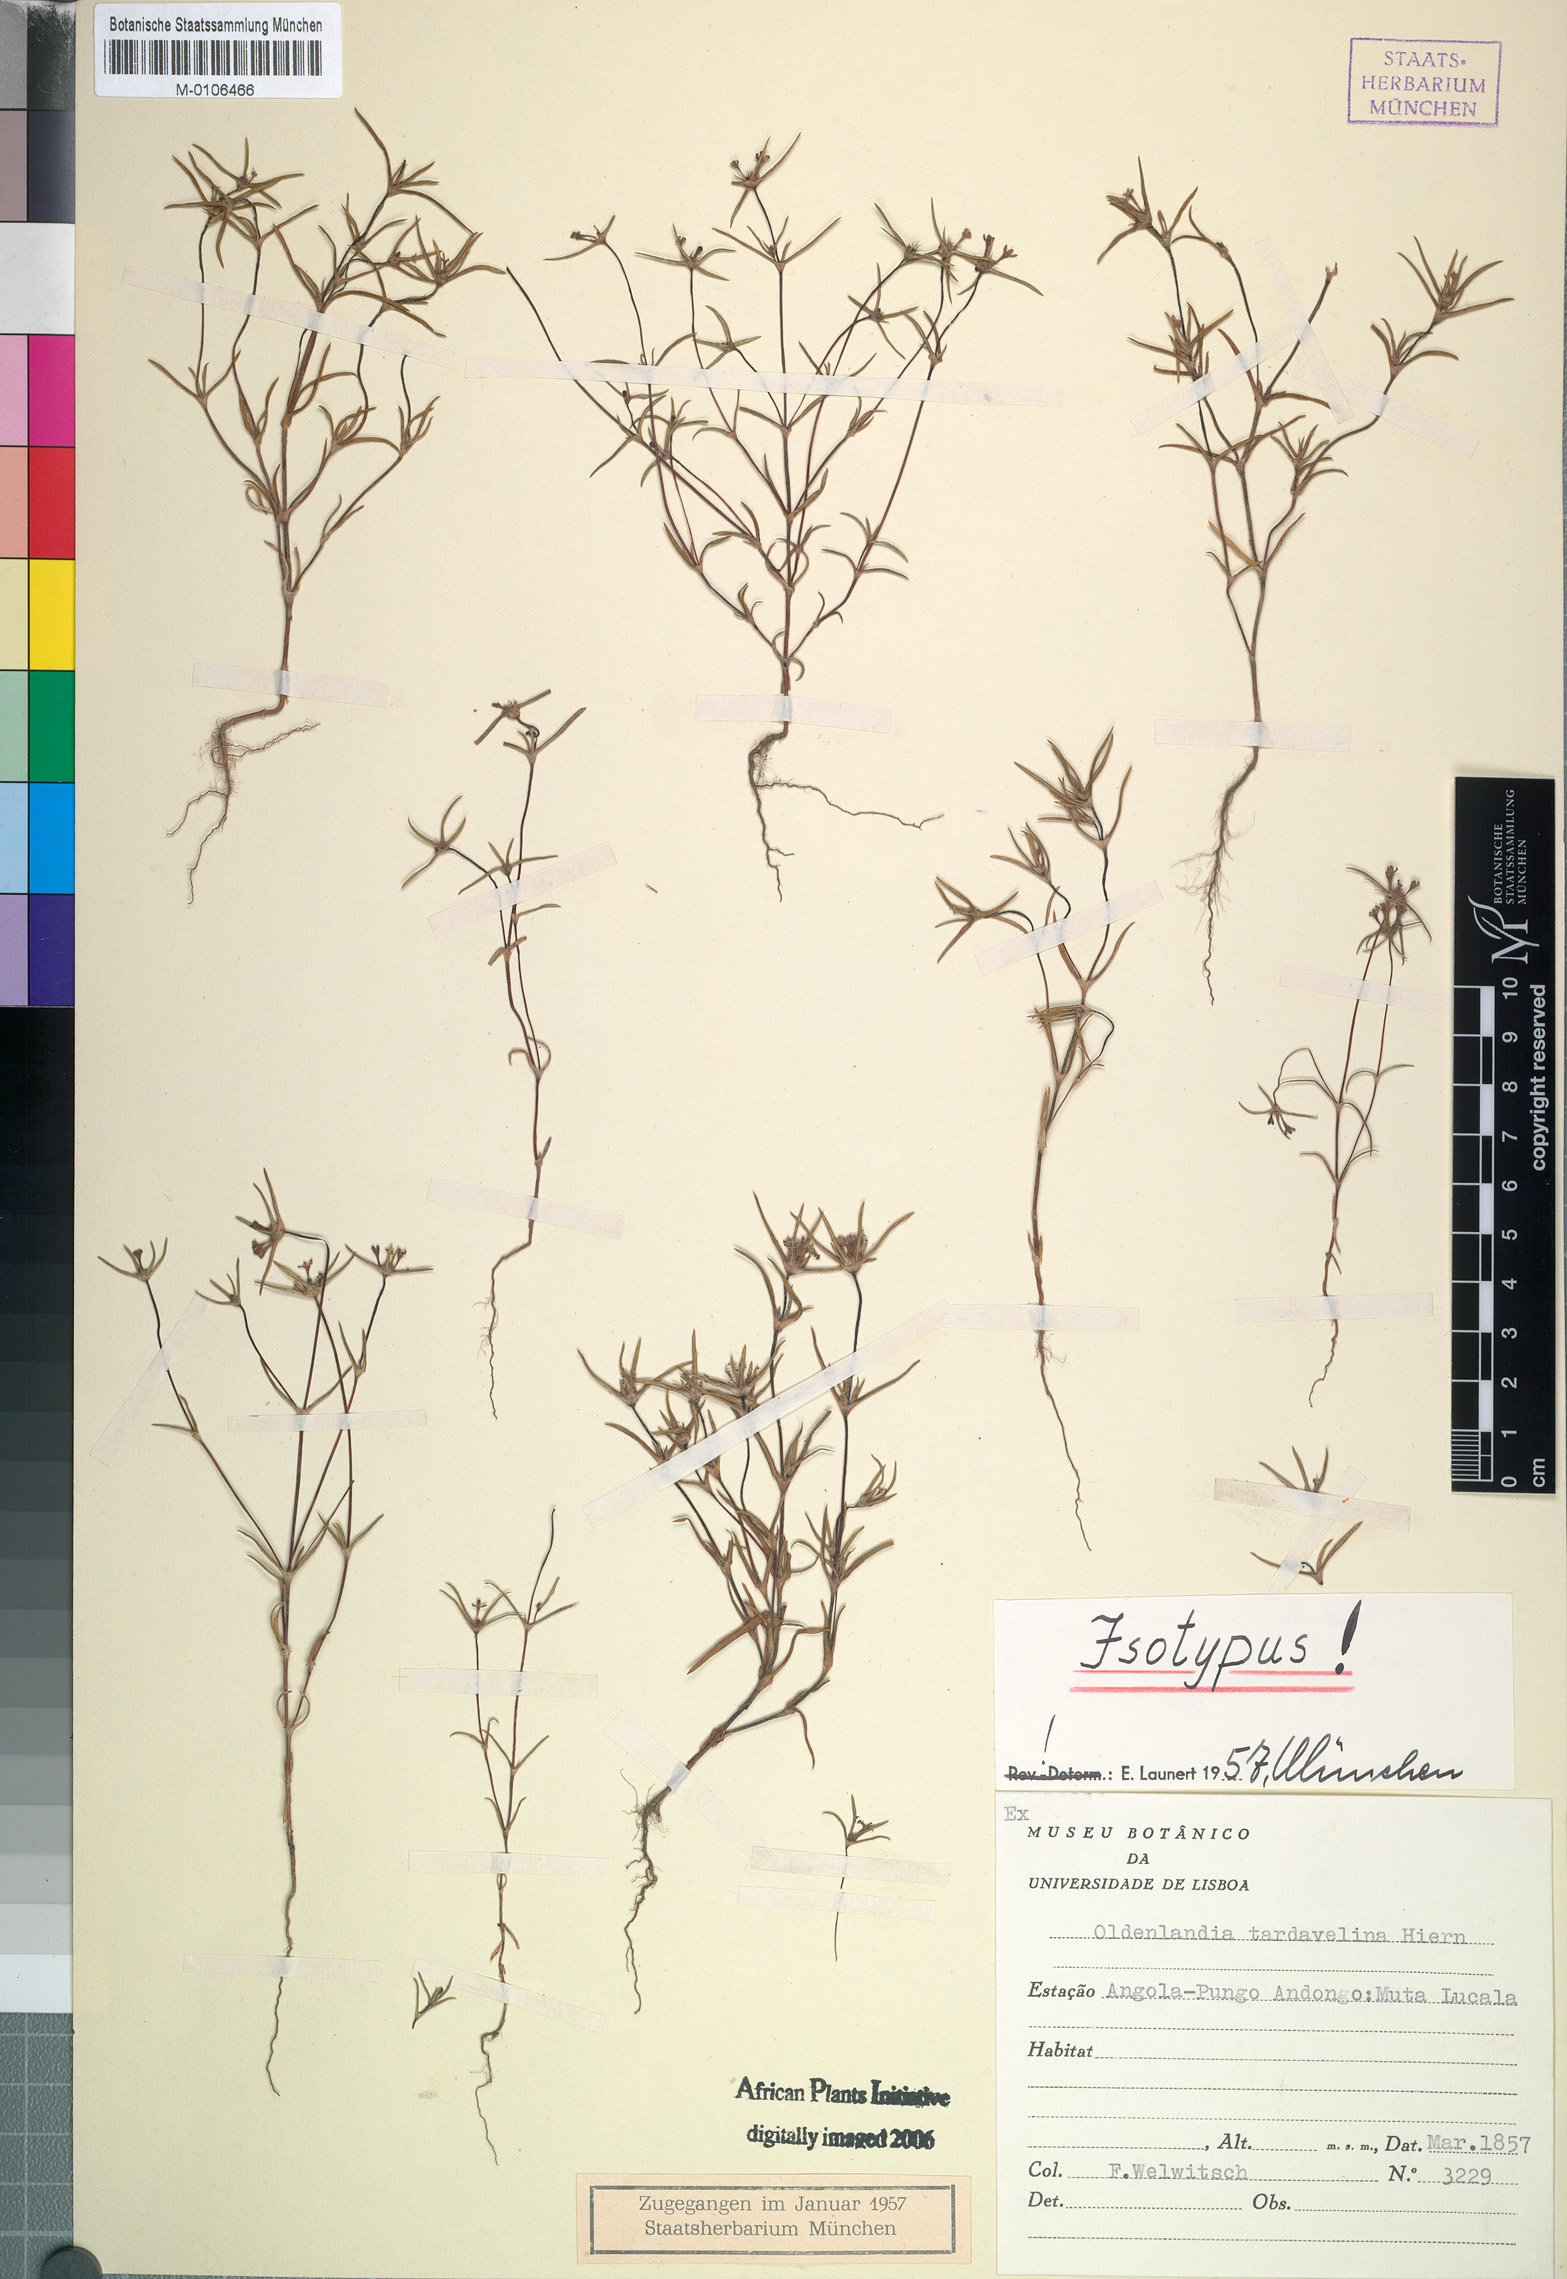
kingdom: Plantae
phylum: Tracheophyta
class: Magnoliopsida
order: Gentianales
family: Rubiaceae
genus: Oldenlandia
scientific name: Oldenlandia tardavelina
